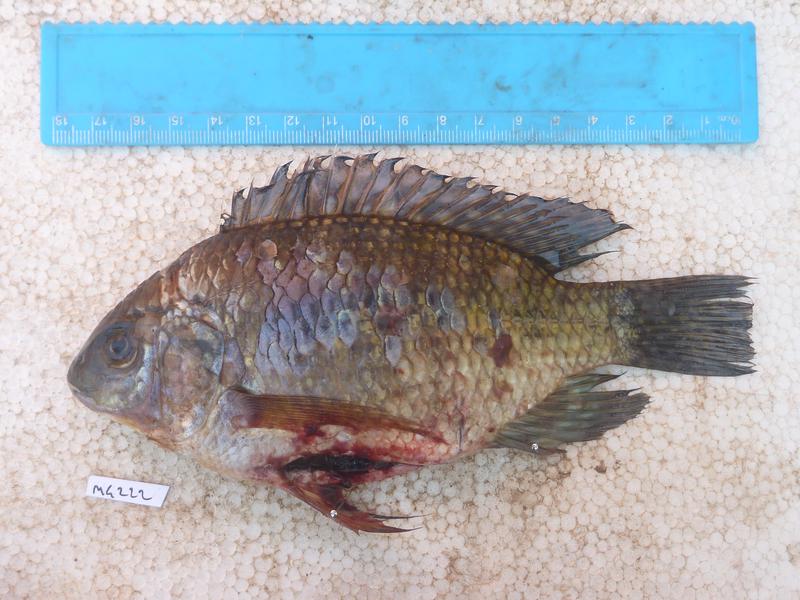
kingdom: Animalia
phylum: Chordata
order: Perciformes
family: Cichlidae
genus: Oreochromis
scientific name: Oreochromis upembae
